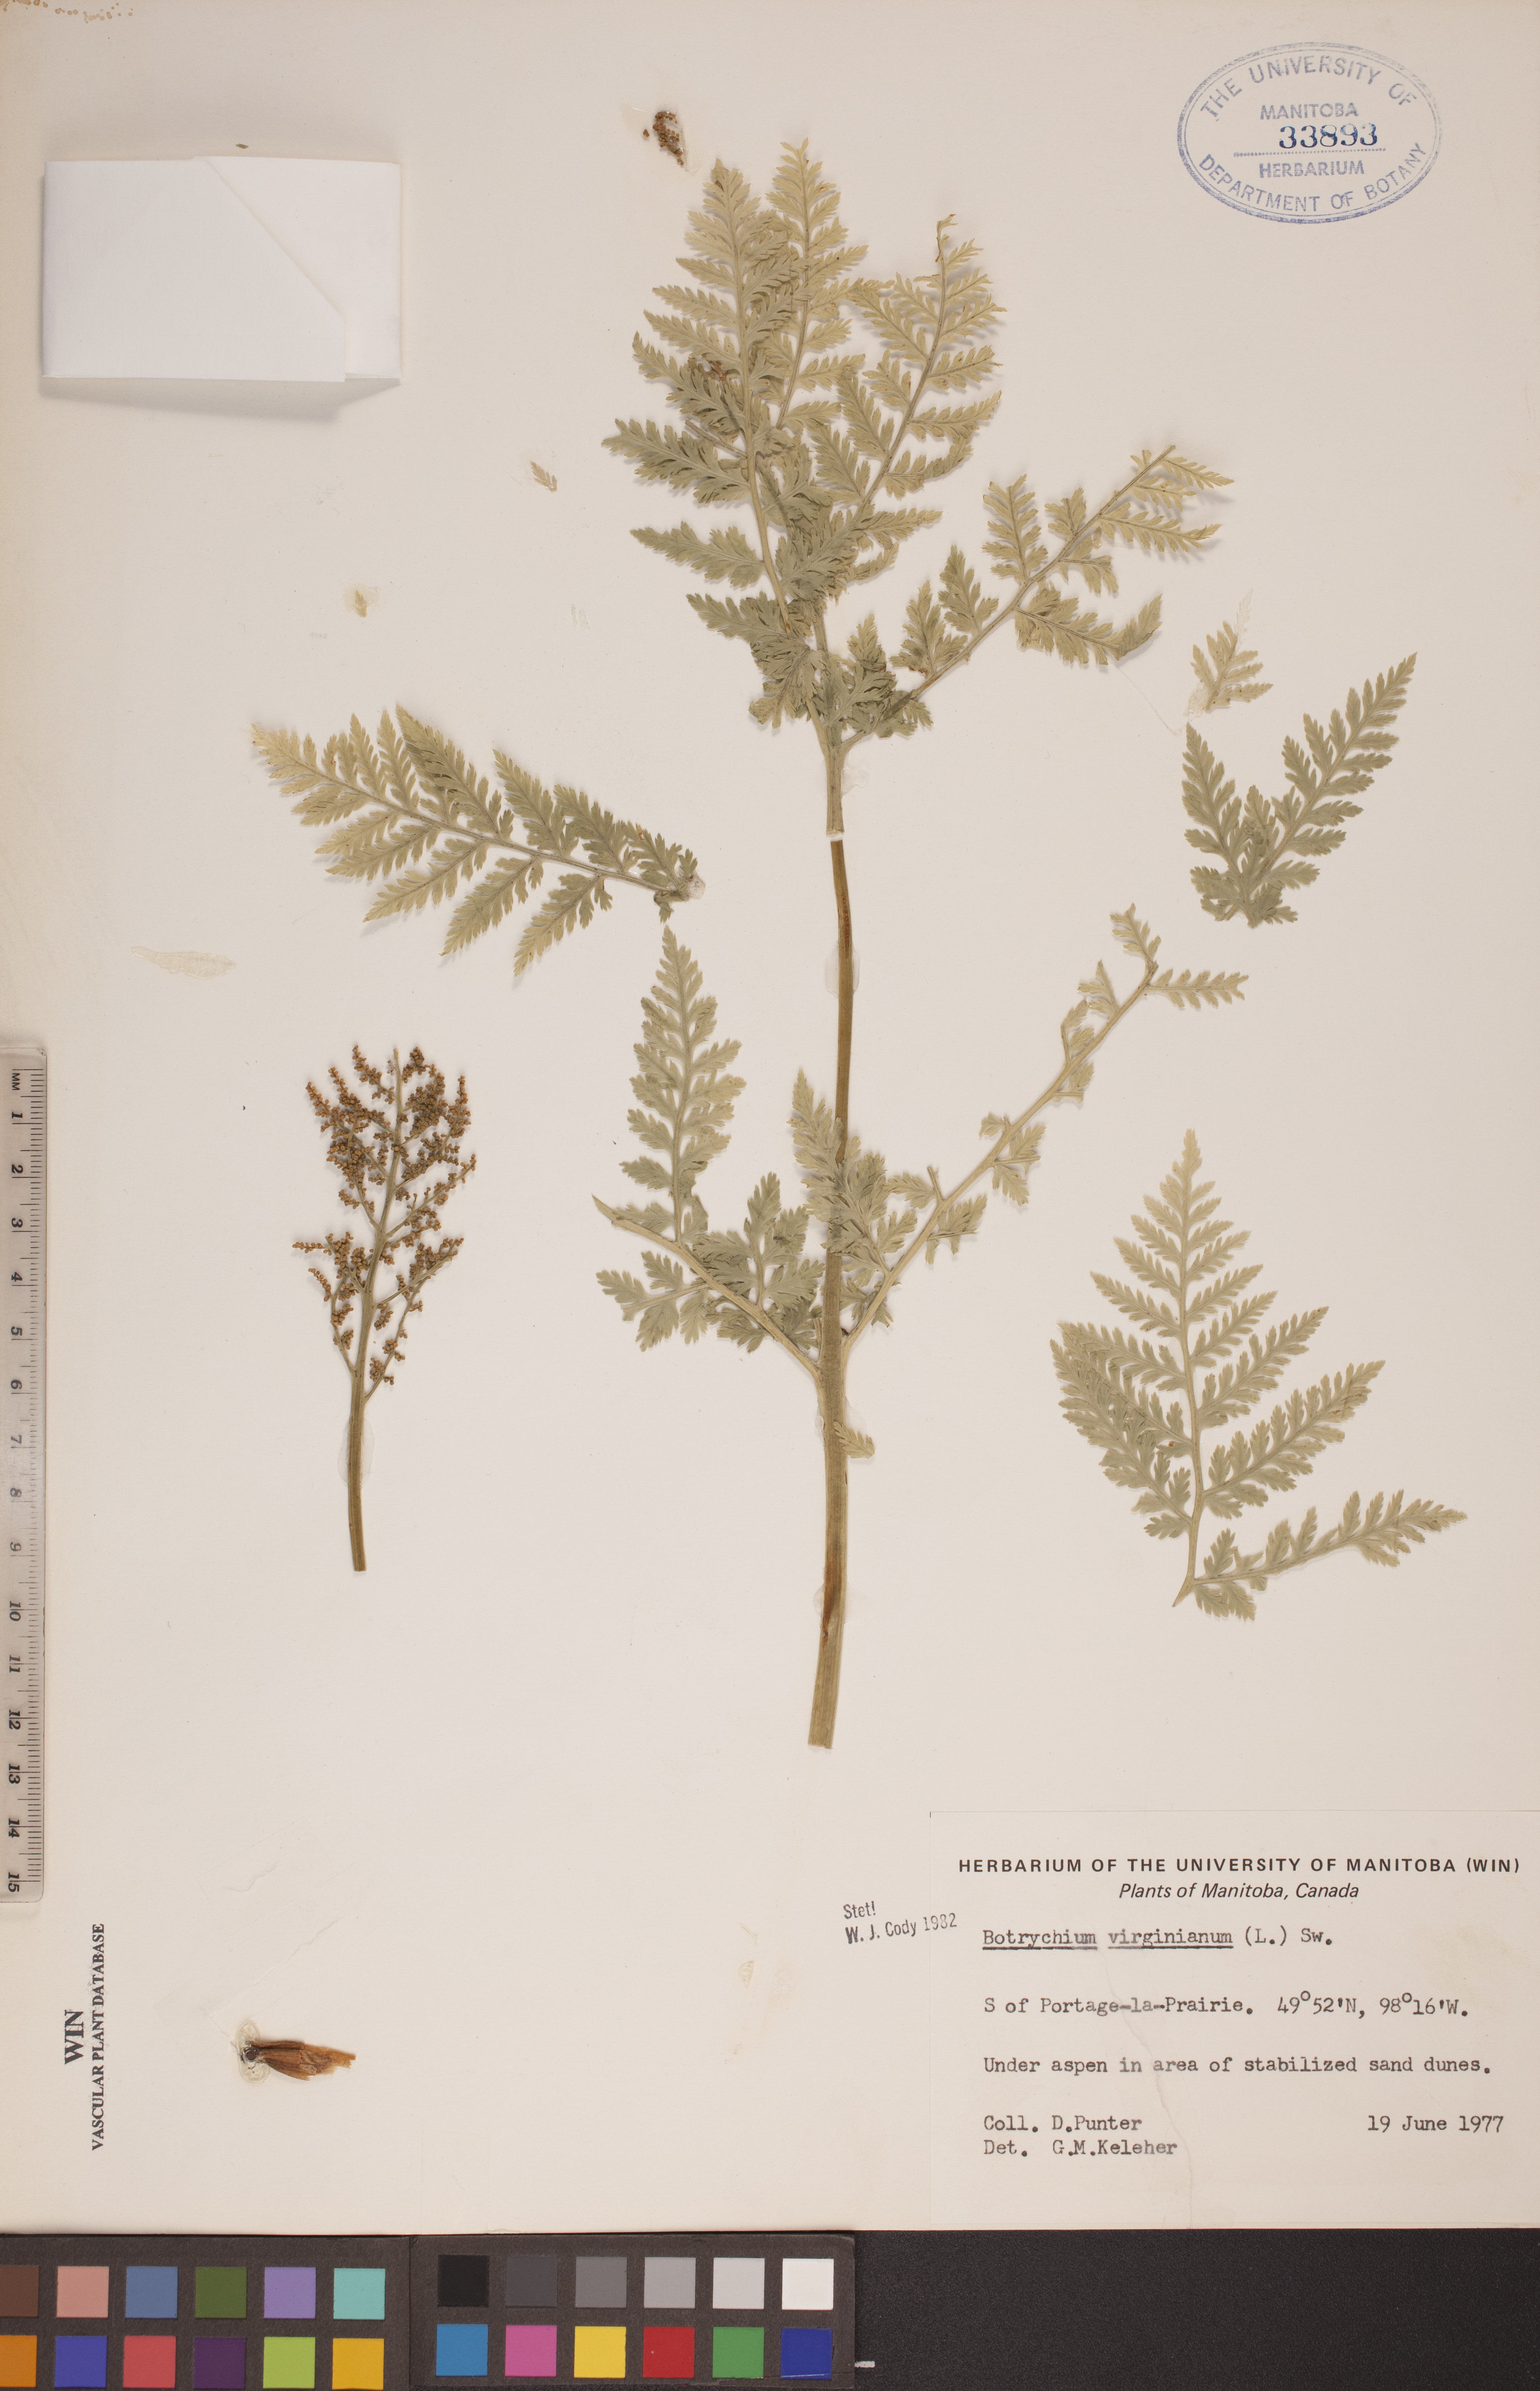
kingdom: Plantae
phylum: Tracheophyta
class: Polypodiopsida
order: Ophioglossales
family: Ophioglossaceae
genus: Botrypus
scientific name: Botrypus virginianus
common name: Common grapefern
